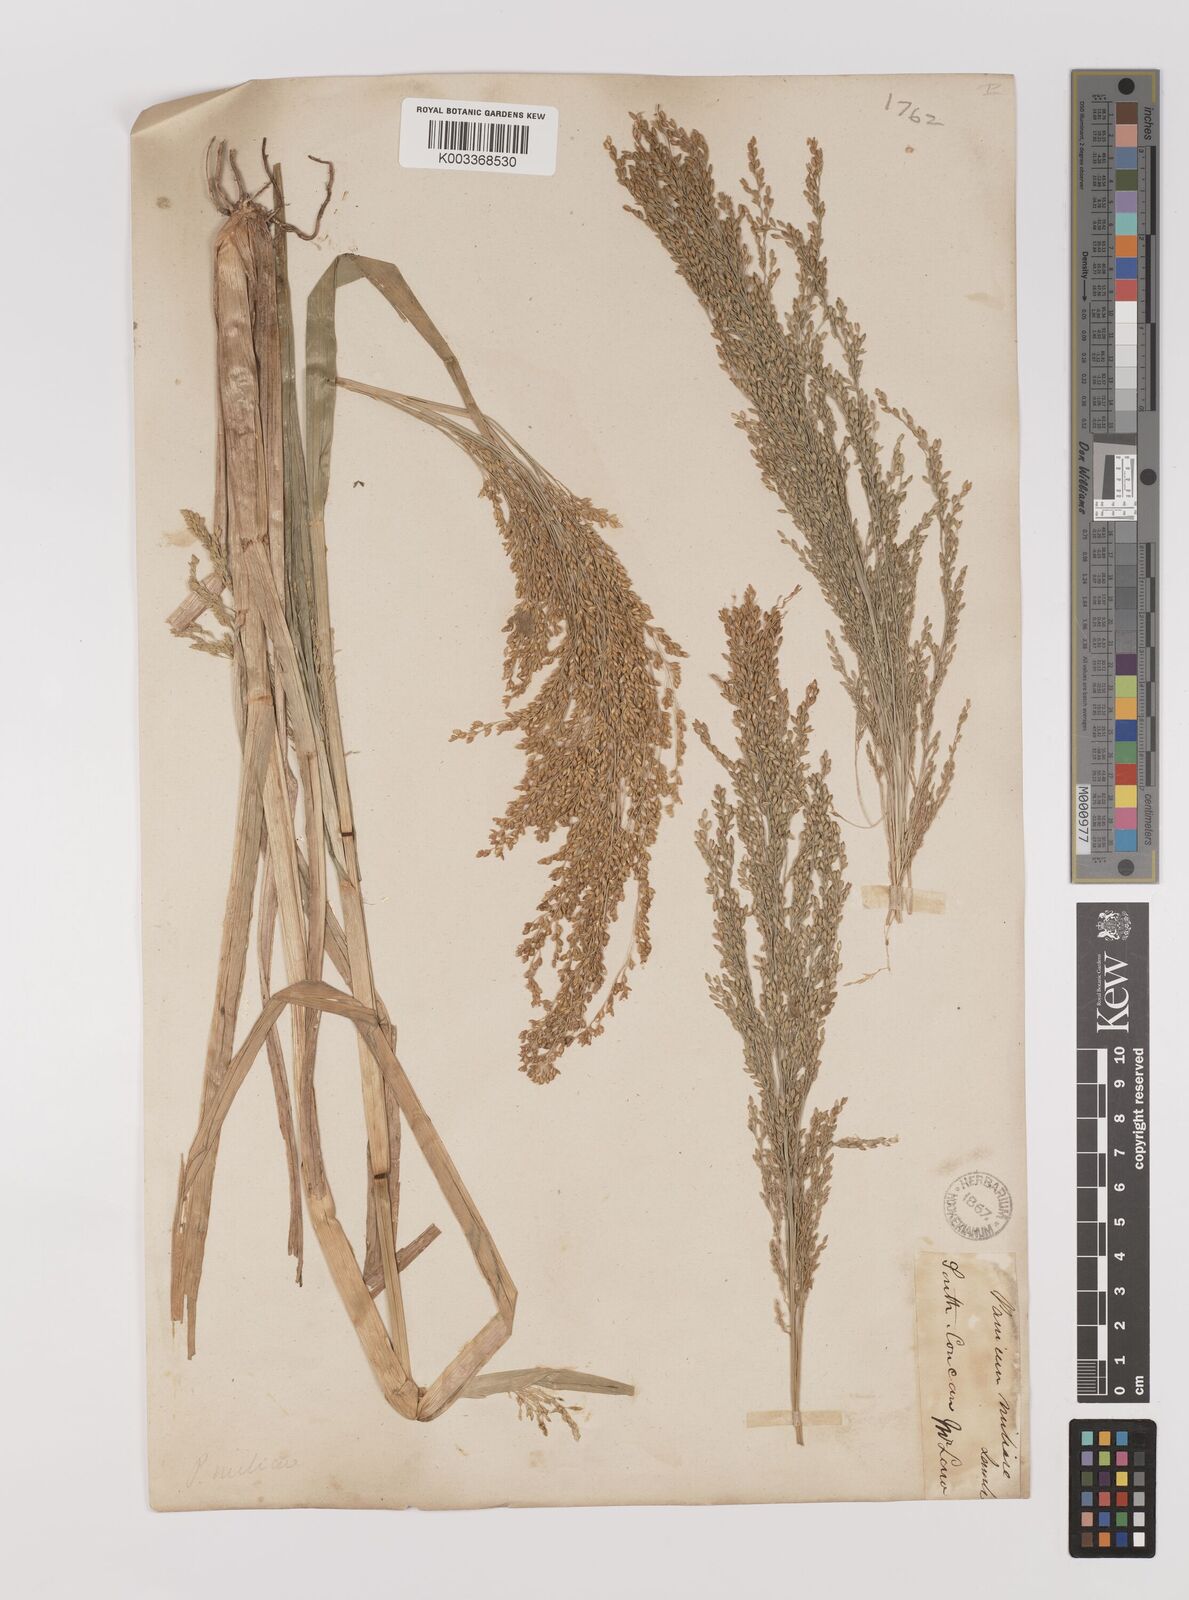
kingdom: Plantae
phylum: Tracheophyta
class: Liliopsida
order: Poales
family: Poaceae
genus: Panicum
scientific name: Panicum sumatrense
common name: Little millet
